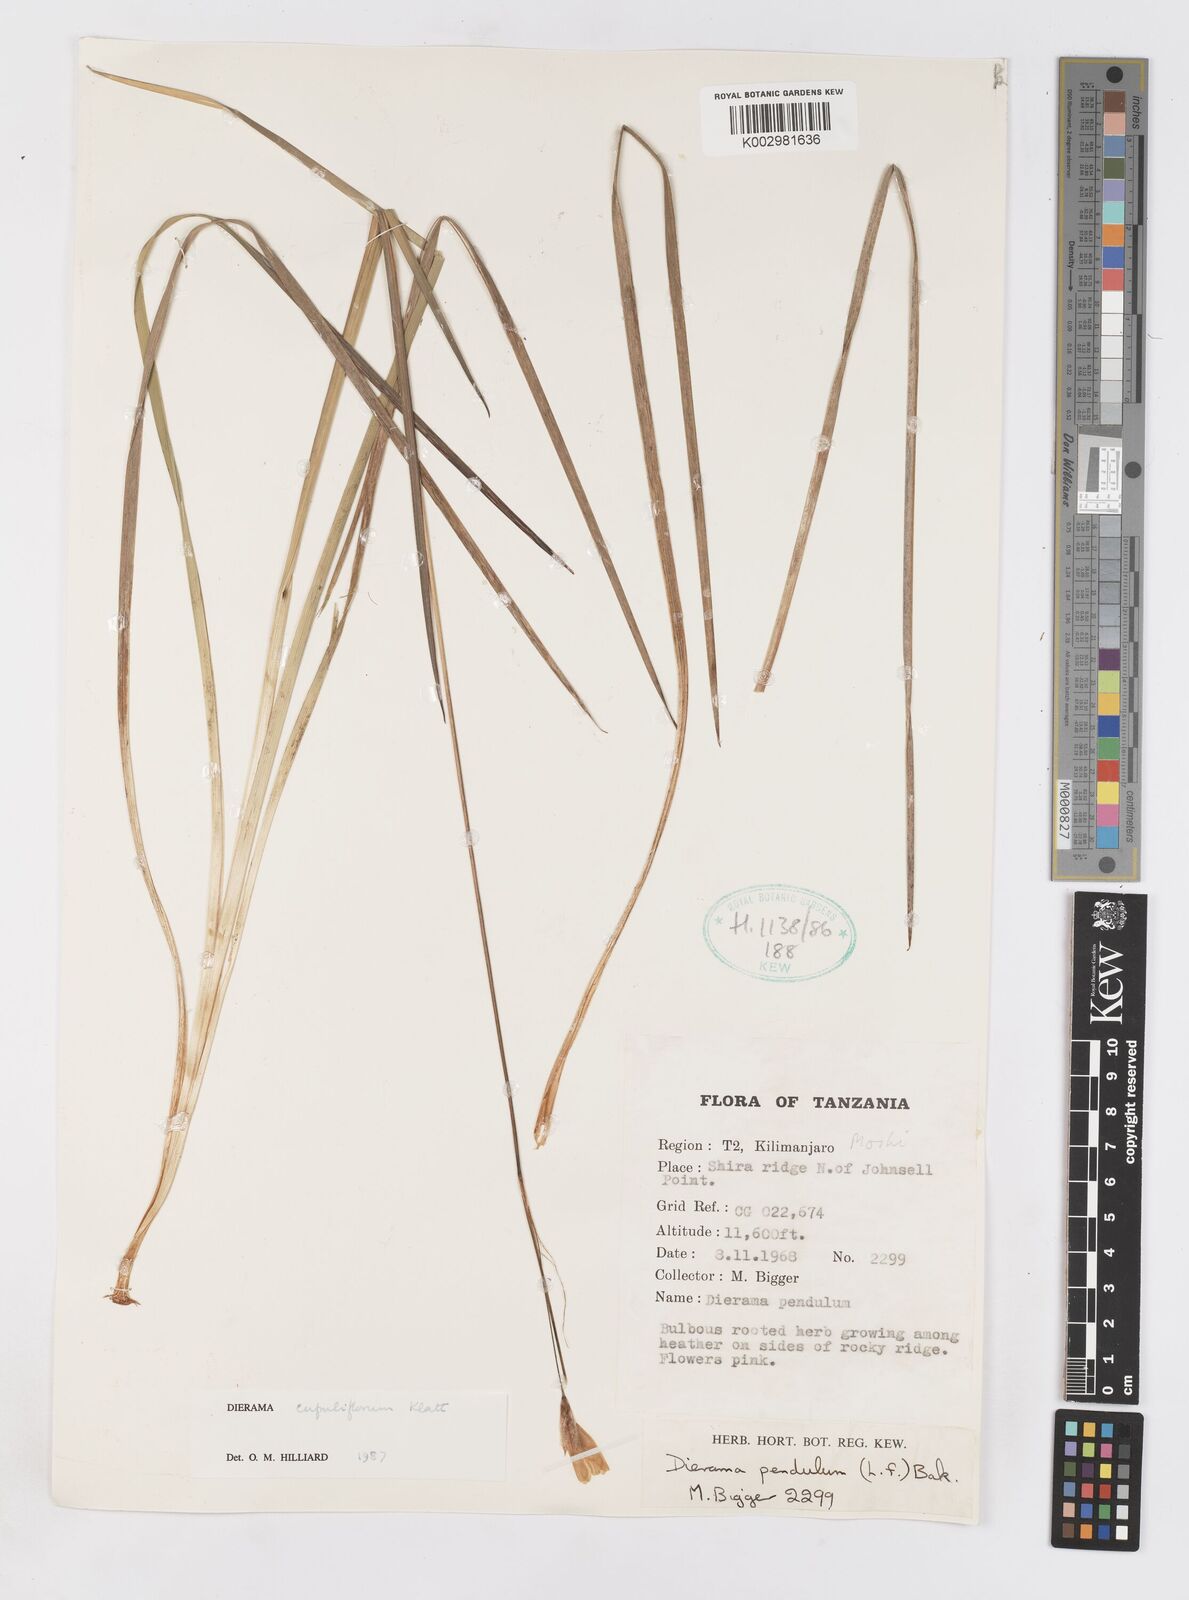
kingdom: Plantae
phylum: Tracheophyta
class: Liliopsida
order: Asparagales
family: Iridaceae
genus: Dierama
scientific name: Dierama cupuliflorum
